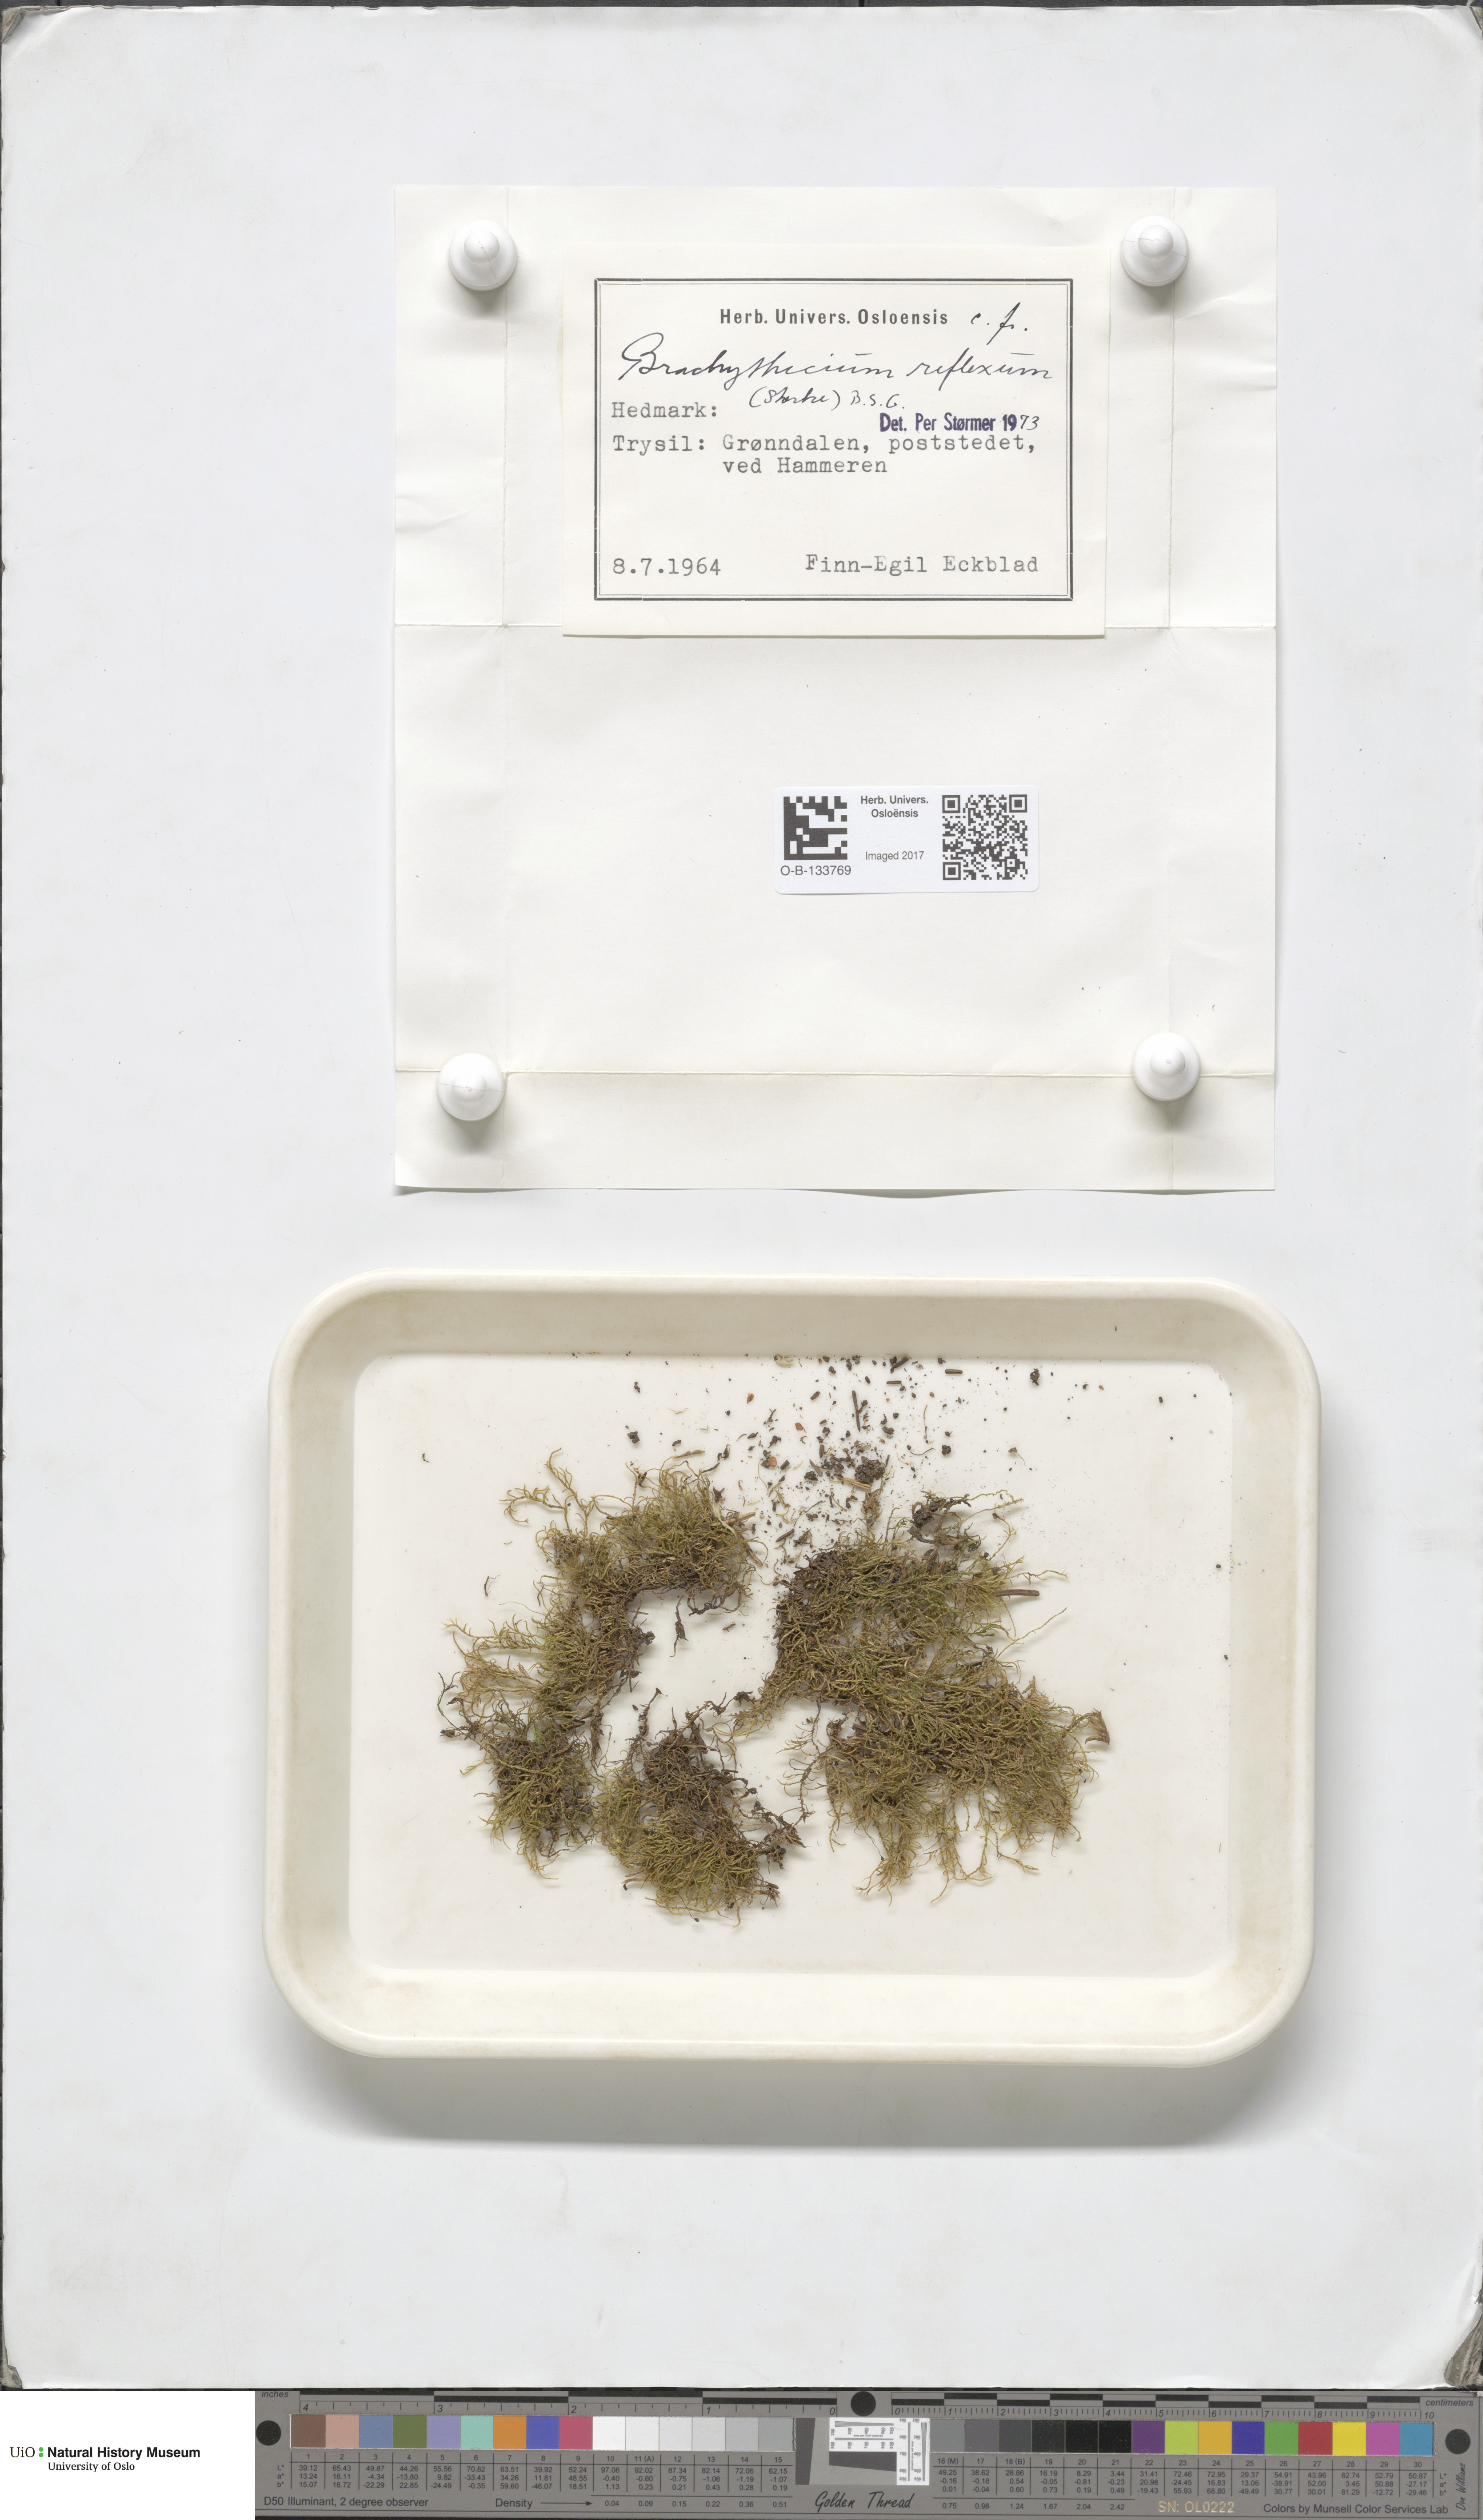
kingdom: Plantae
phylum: Bryophyta
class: Bryopsida
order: Hypnales
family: Brachytheciaceae
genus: Sciuro-hypnum
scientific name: Sciuro-hypnum reflexum
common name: Reflexed feather-moss
